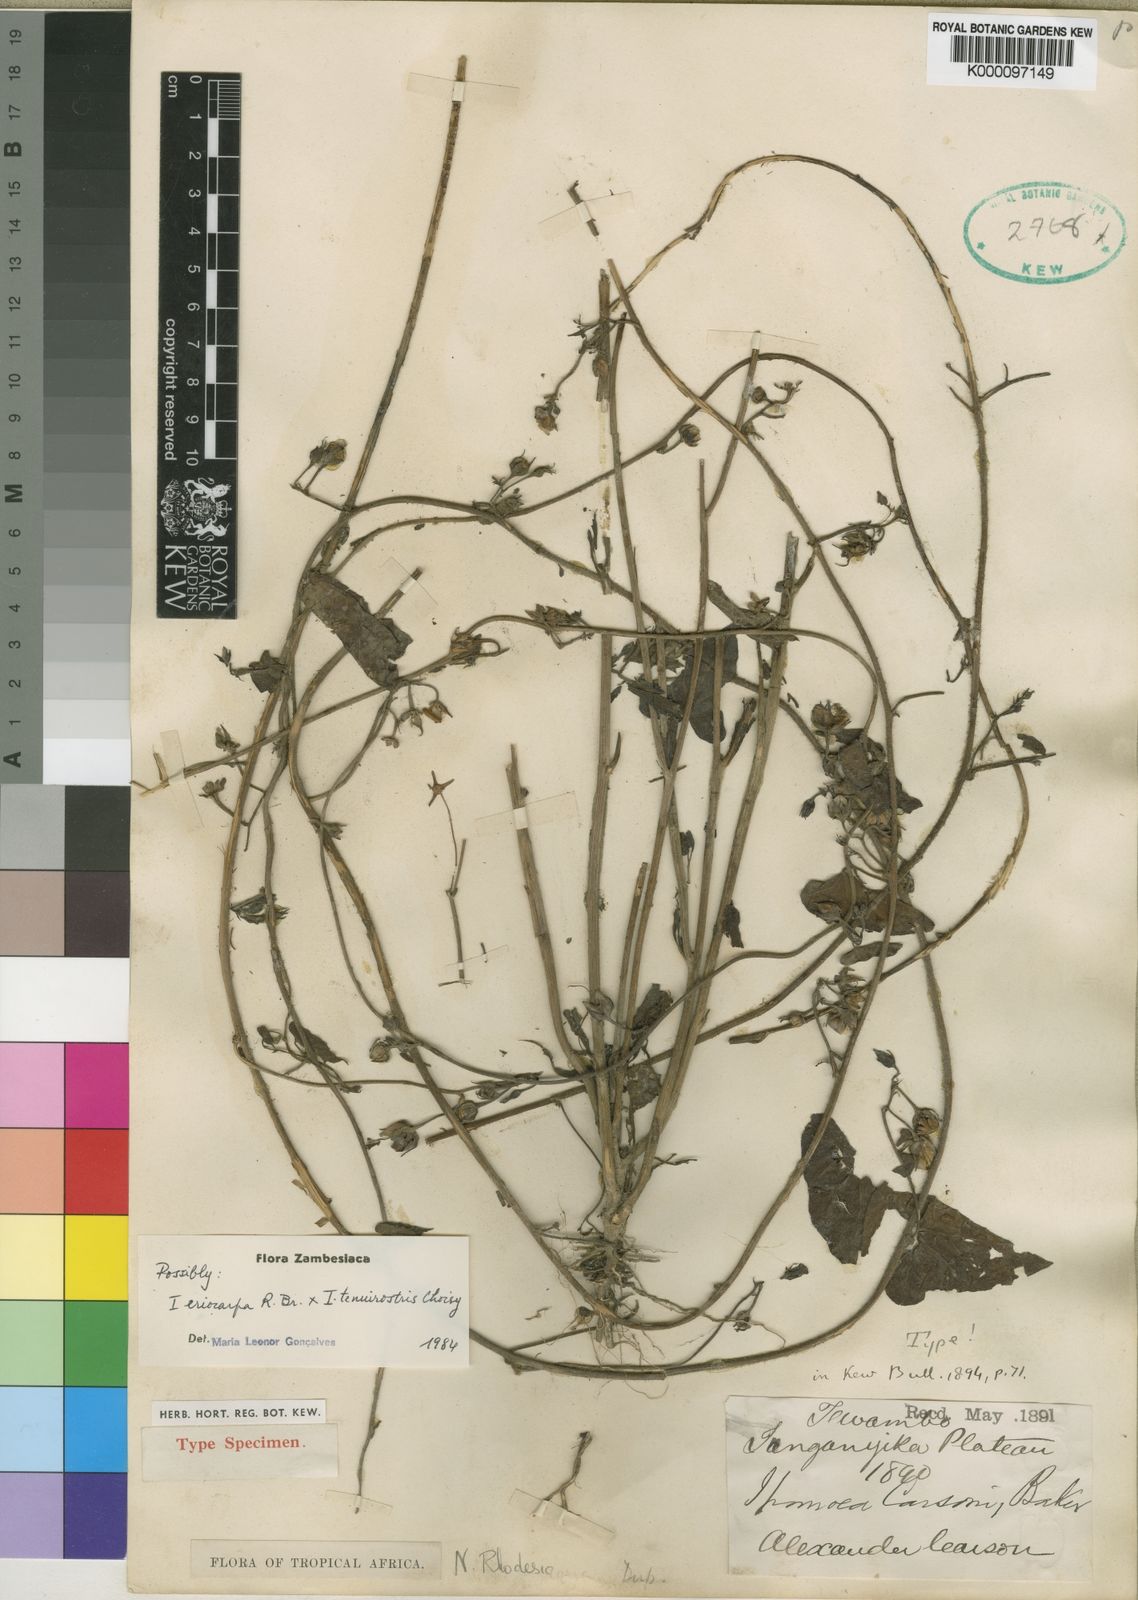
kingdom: Plantae
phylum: Tracheophyta
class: Magnoliopsida
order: Solanales
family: Convolvulaceae
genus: Ipomoea
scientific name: Ipomoea eriocarpa
